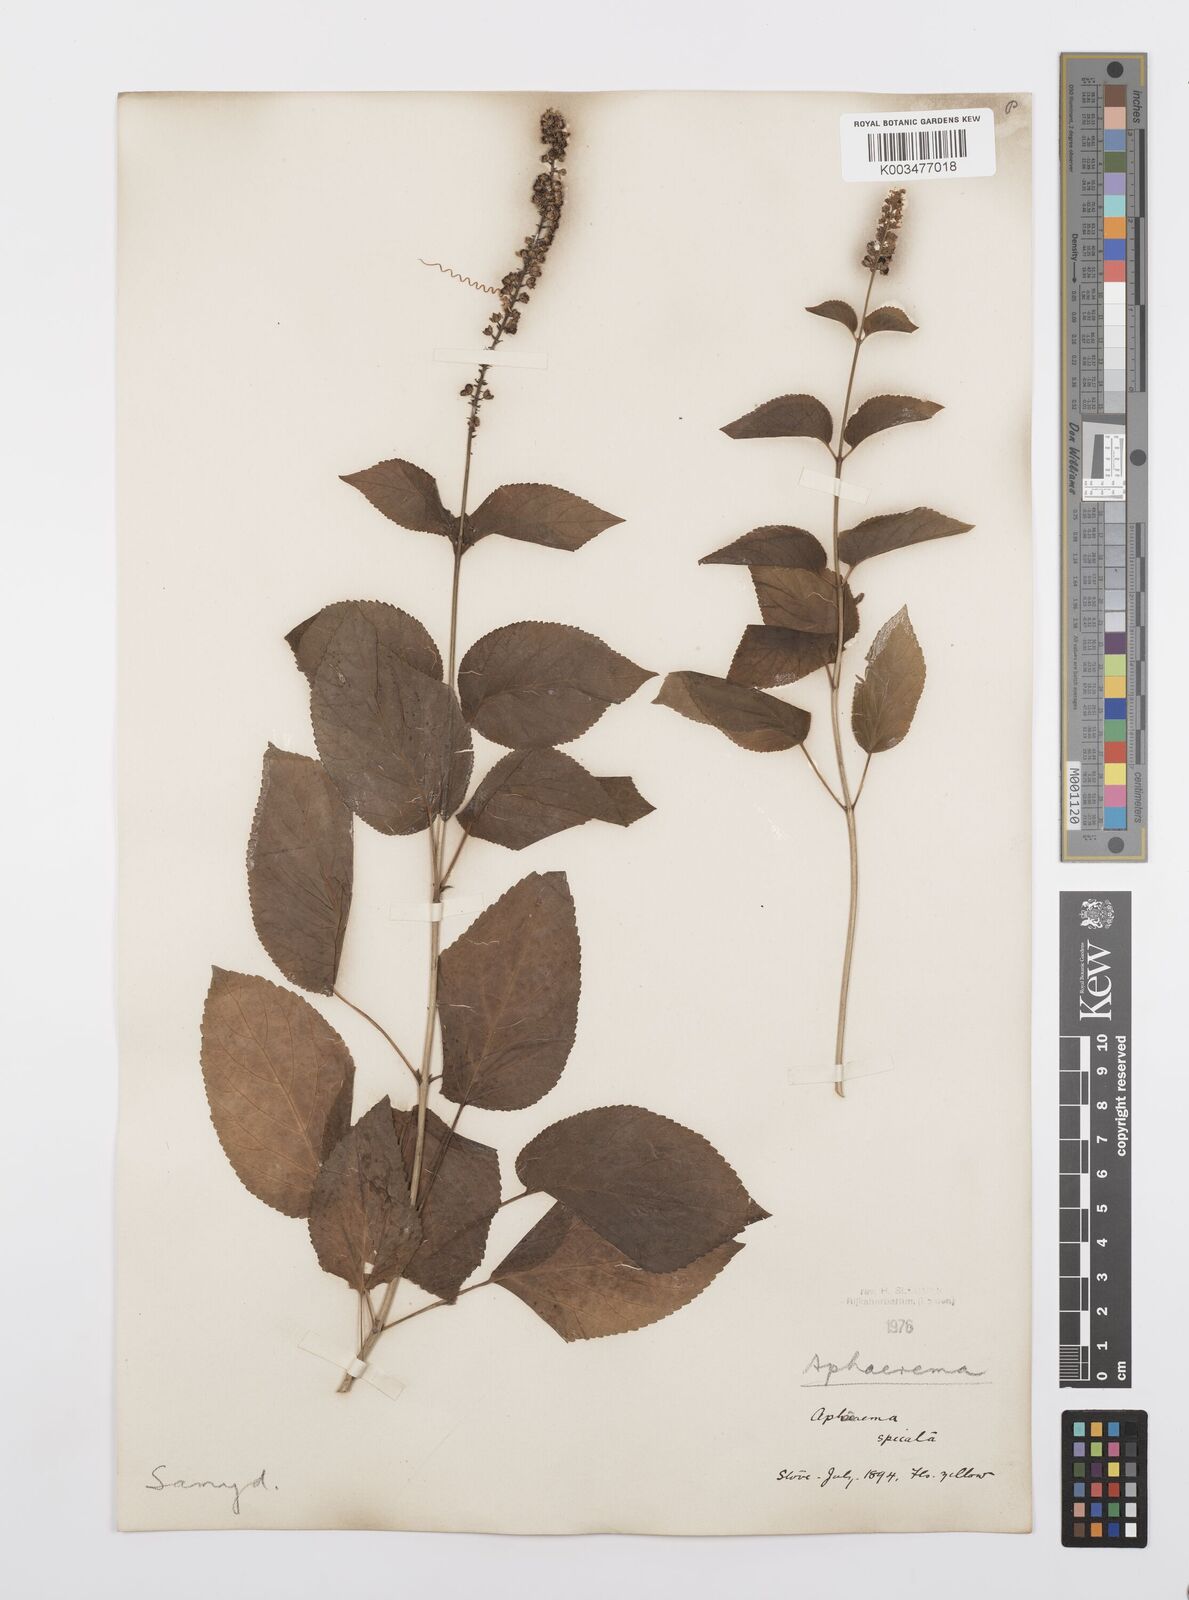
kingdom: Plantae
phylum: Tracheophyta
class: Magnoliopsida
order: Malpighiales
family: Salicaceae
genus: Abatia
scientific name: Abatia angeliana
